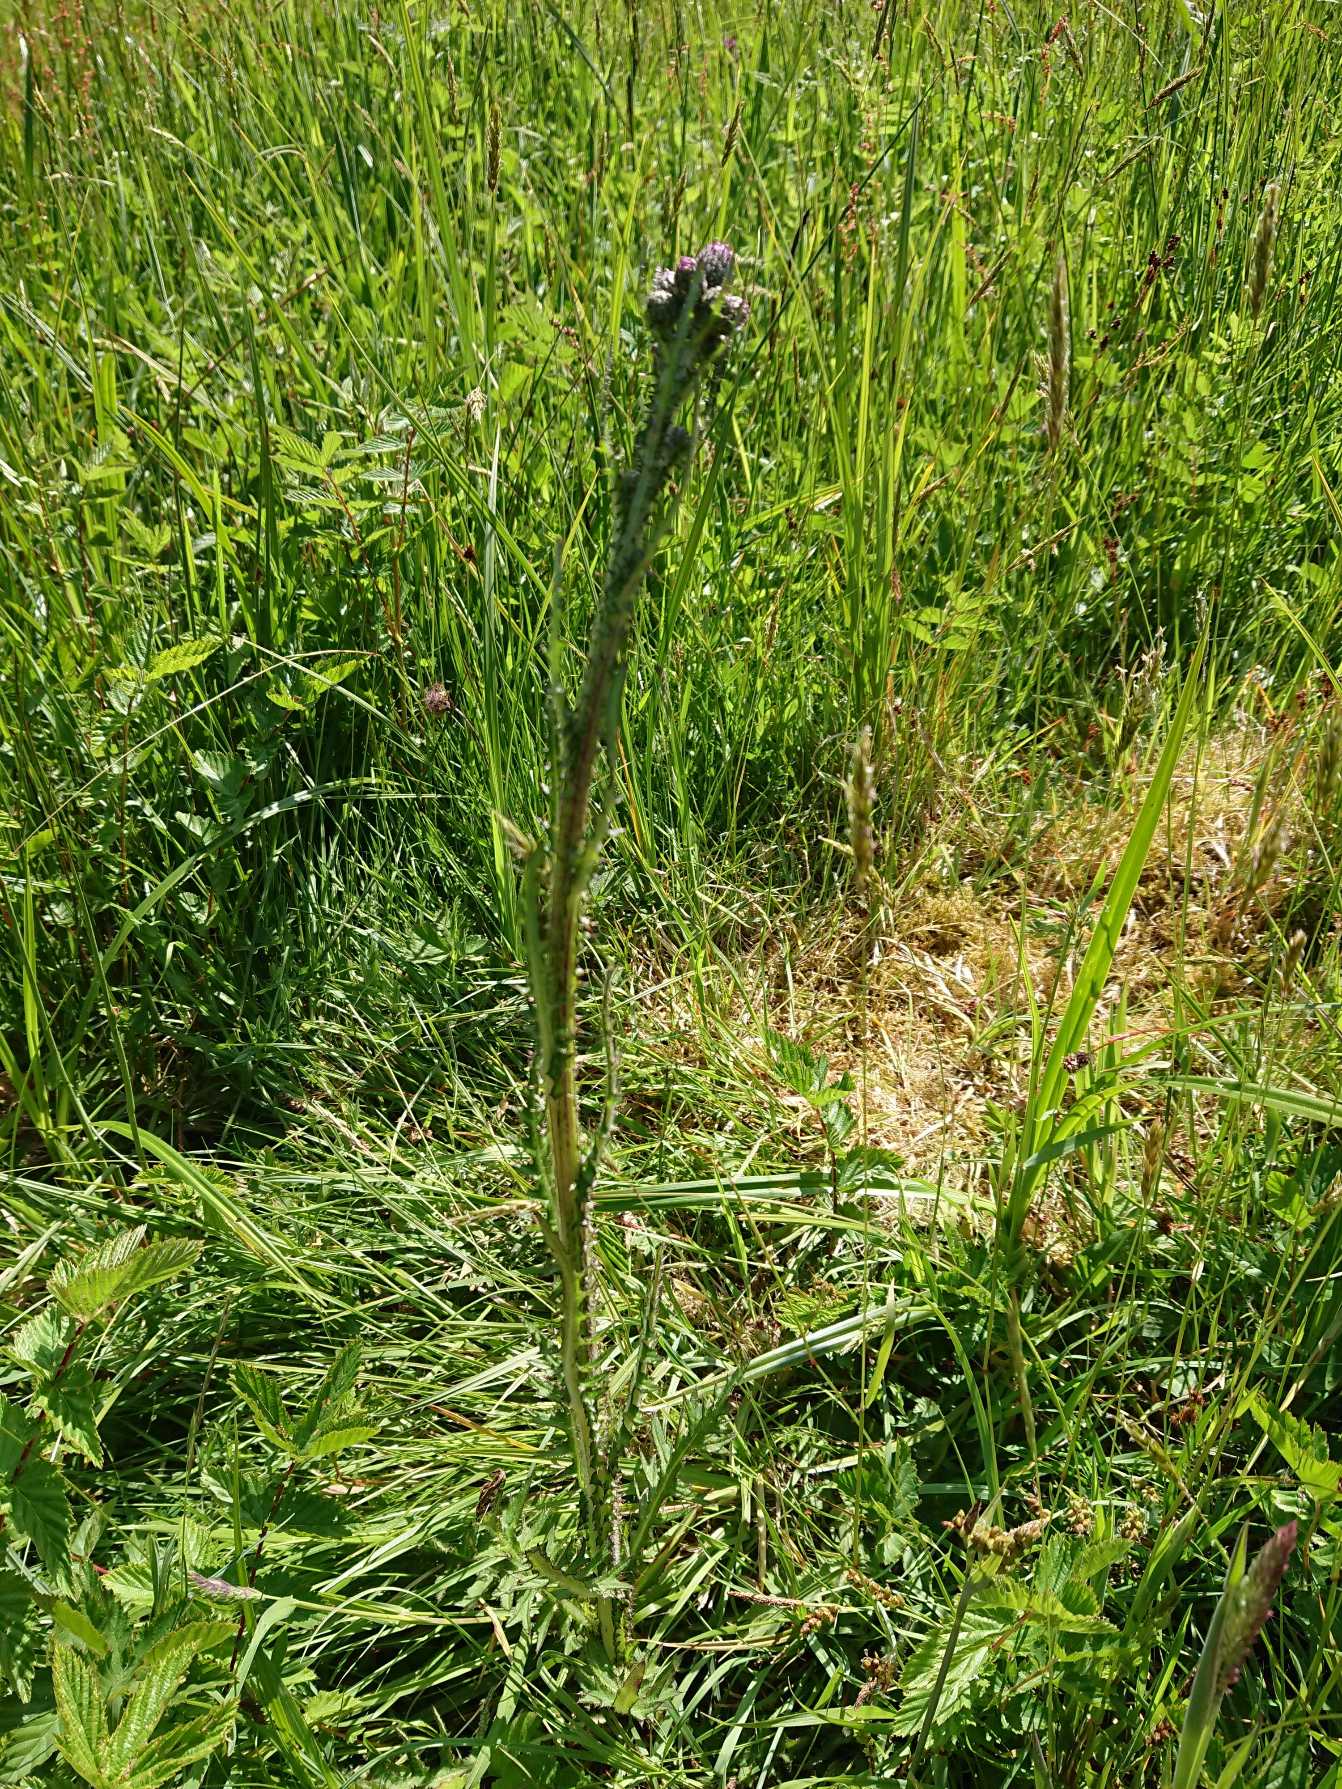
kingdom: Plantae
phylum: Tracheophyta
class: Magnoliopsida
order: Asterales
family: Asteraceae
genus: Cirsium
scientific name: Cirsium palustre
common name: Kær-tidsel
